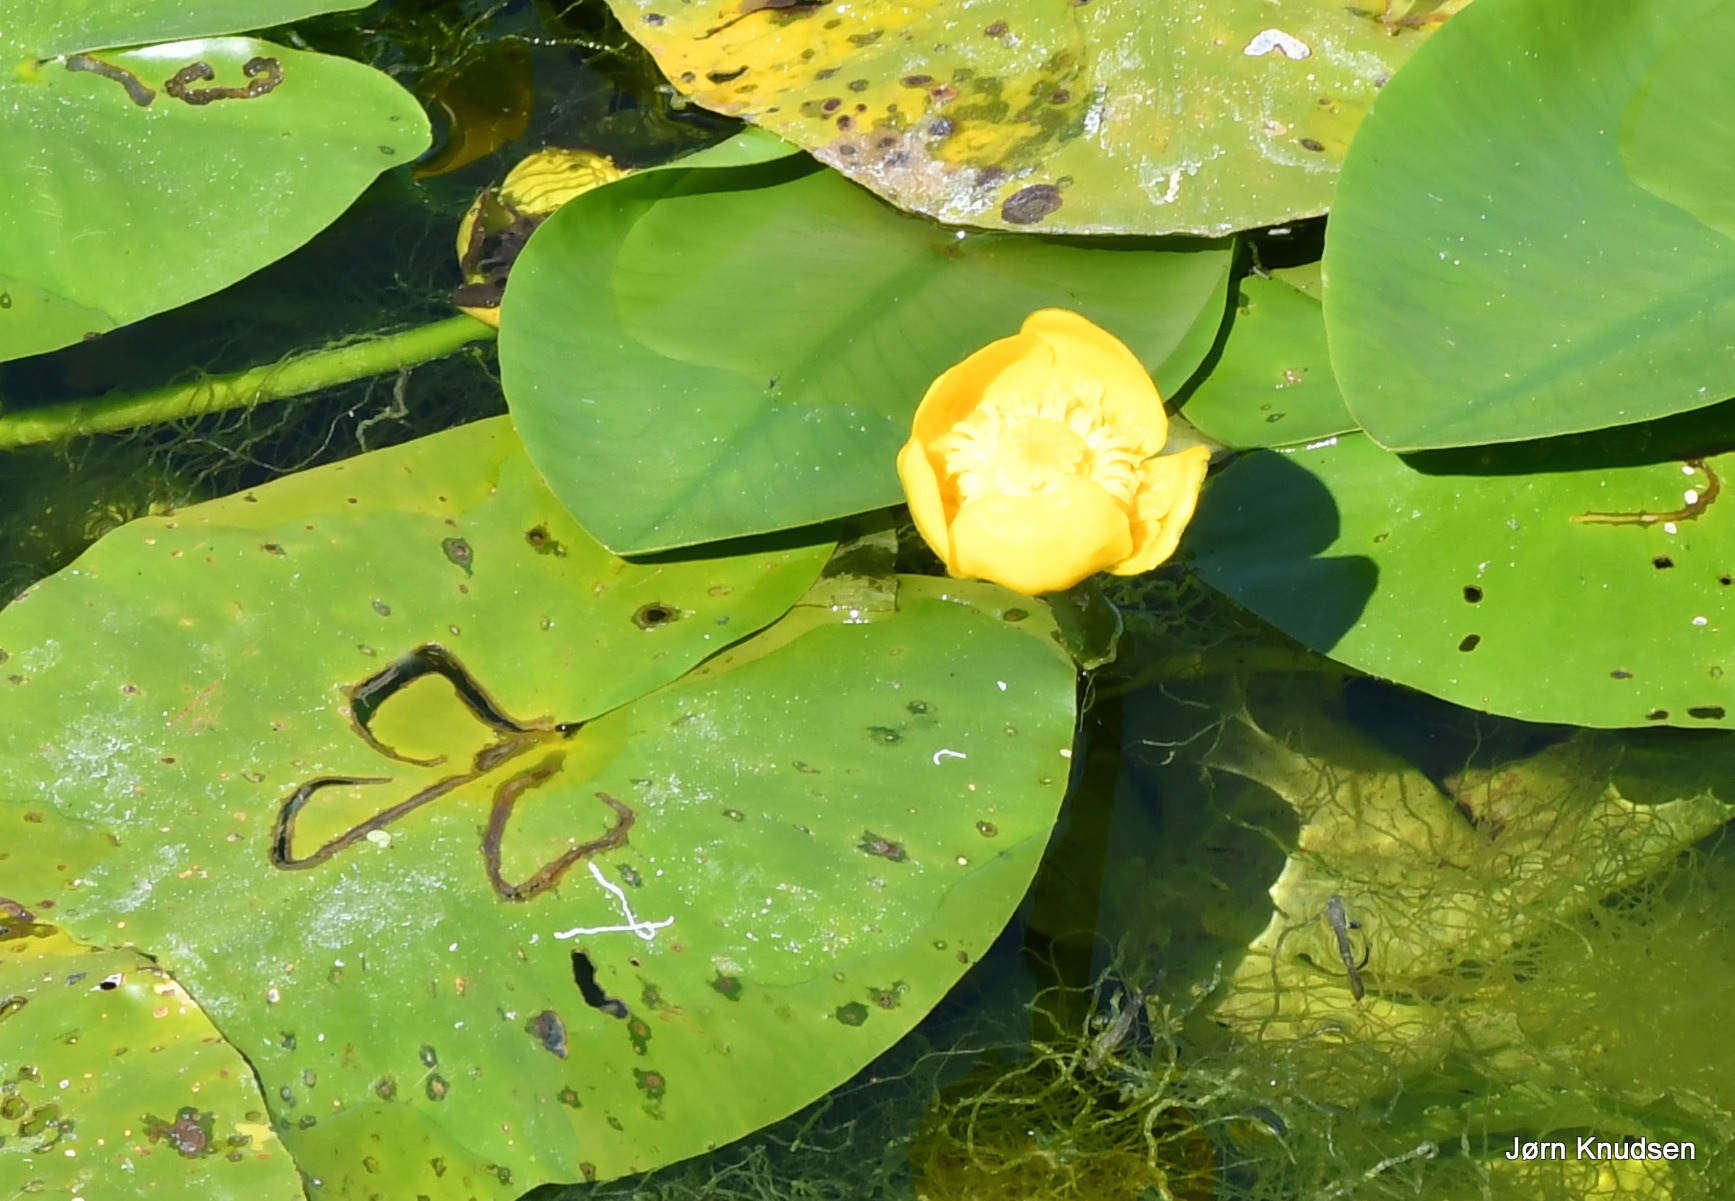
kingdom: Plantae
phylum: Tracheophyta
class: Magnoliopsida
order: Nymphaeales
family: Nymphaeaceae
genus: Nuphar
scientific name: Nuphar lutea
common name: Gul åkande
